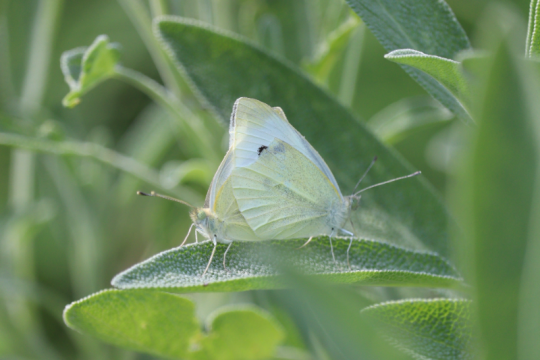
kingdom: Animalia
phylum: Arthropoda
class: Insecta
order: Lepidoptera
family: Pieridae
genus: Pieris
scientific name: Pieris rapae
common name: Cabbage White
